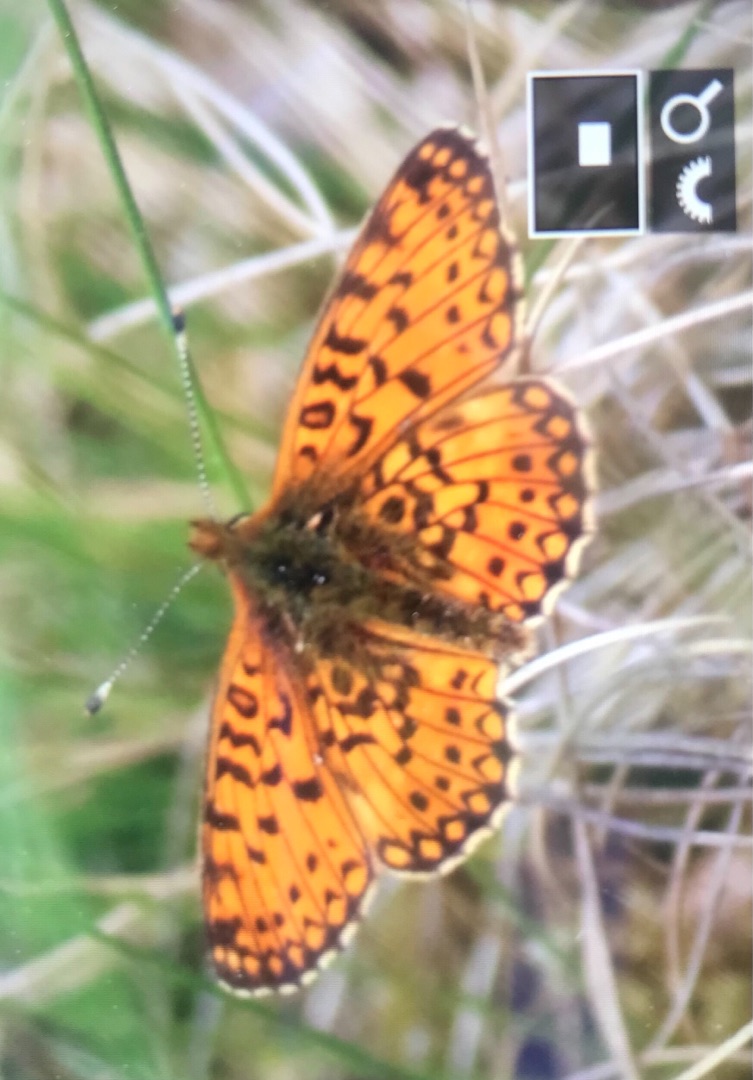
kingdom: Animalia
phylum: Arthropoda
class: Insecta
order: Lepidoptera
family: Nymphalidae
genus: Boloria
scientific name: Boloria selene
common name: Brunlig perlemorsommerfugl
